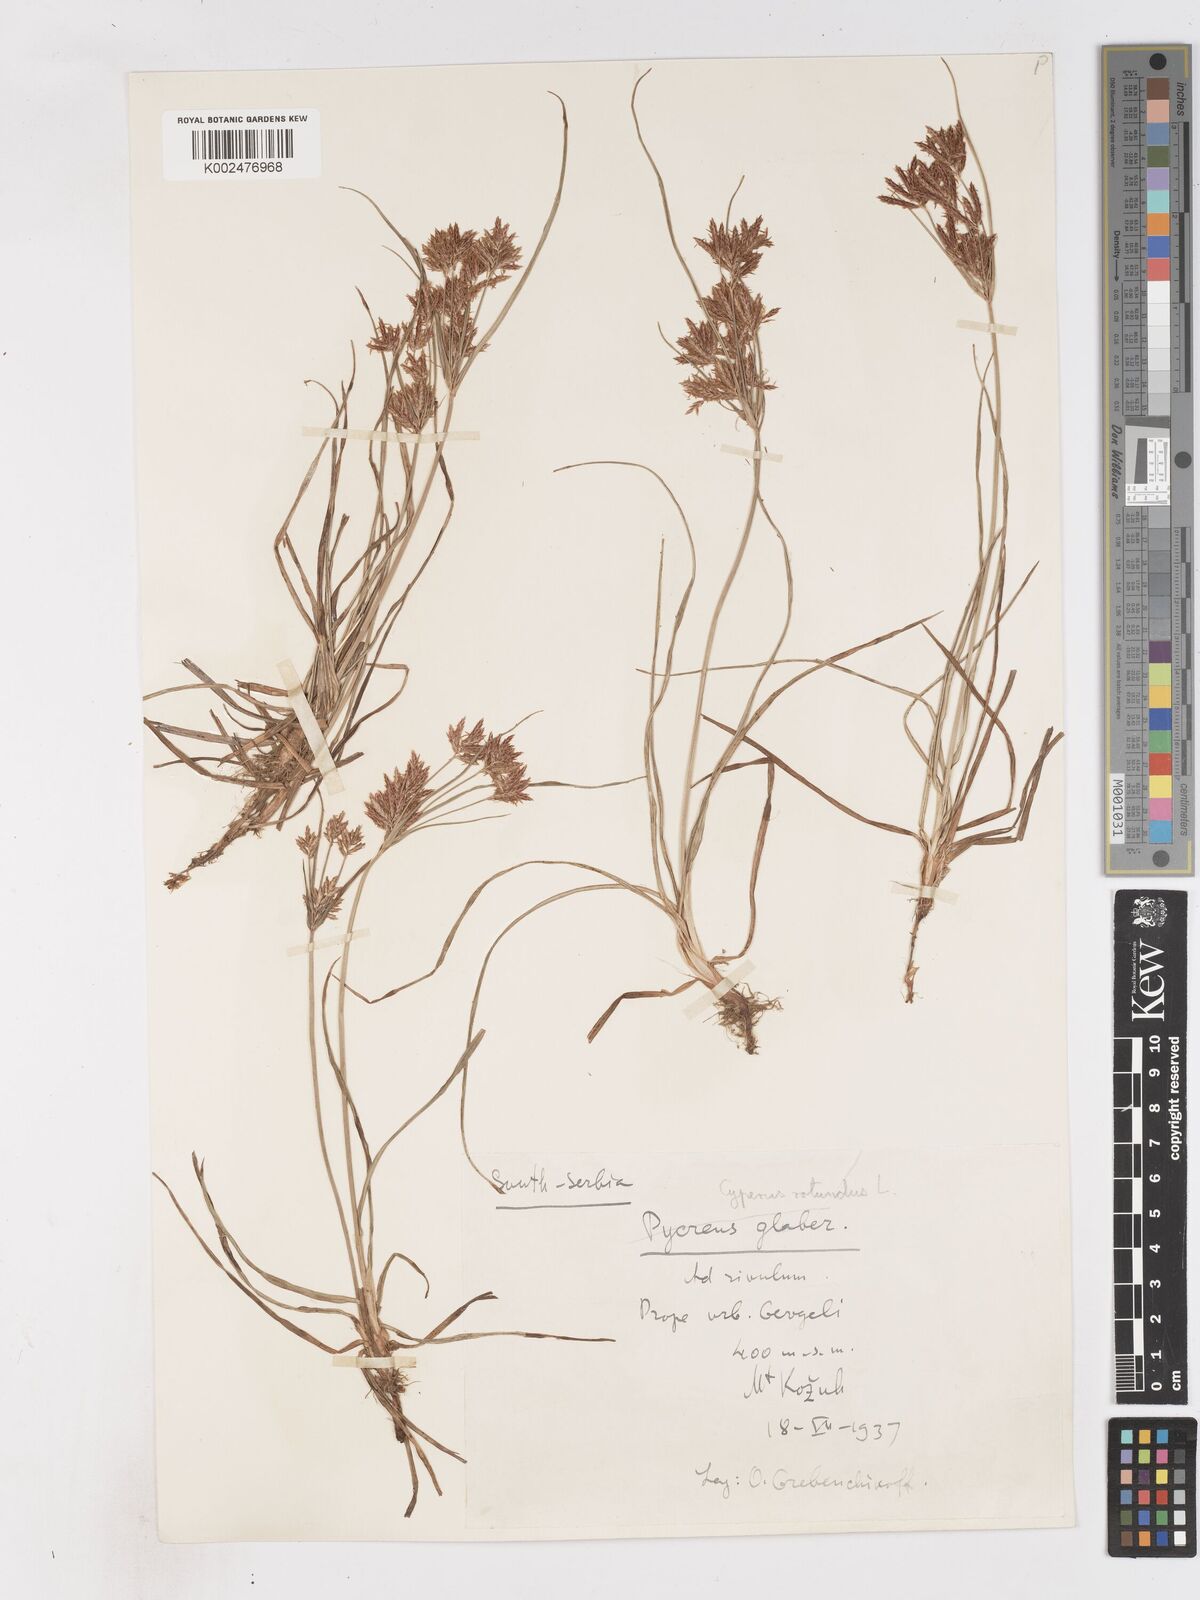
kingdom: Plantae
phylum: Tracheophyta
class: Liliopsida
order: Poales
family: Cyperaceae
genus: Cyperus
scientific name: Cyperus rotundus
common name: Nutgrass
